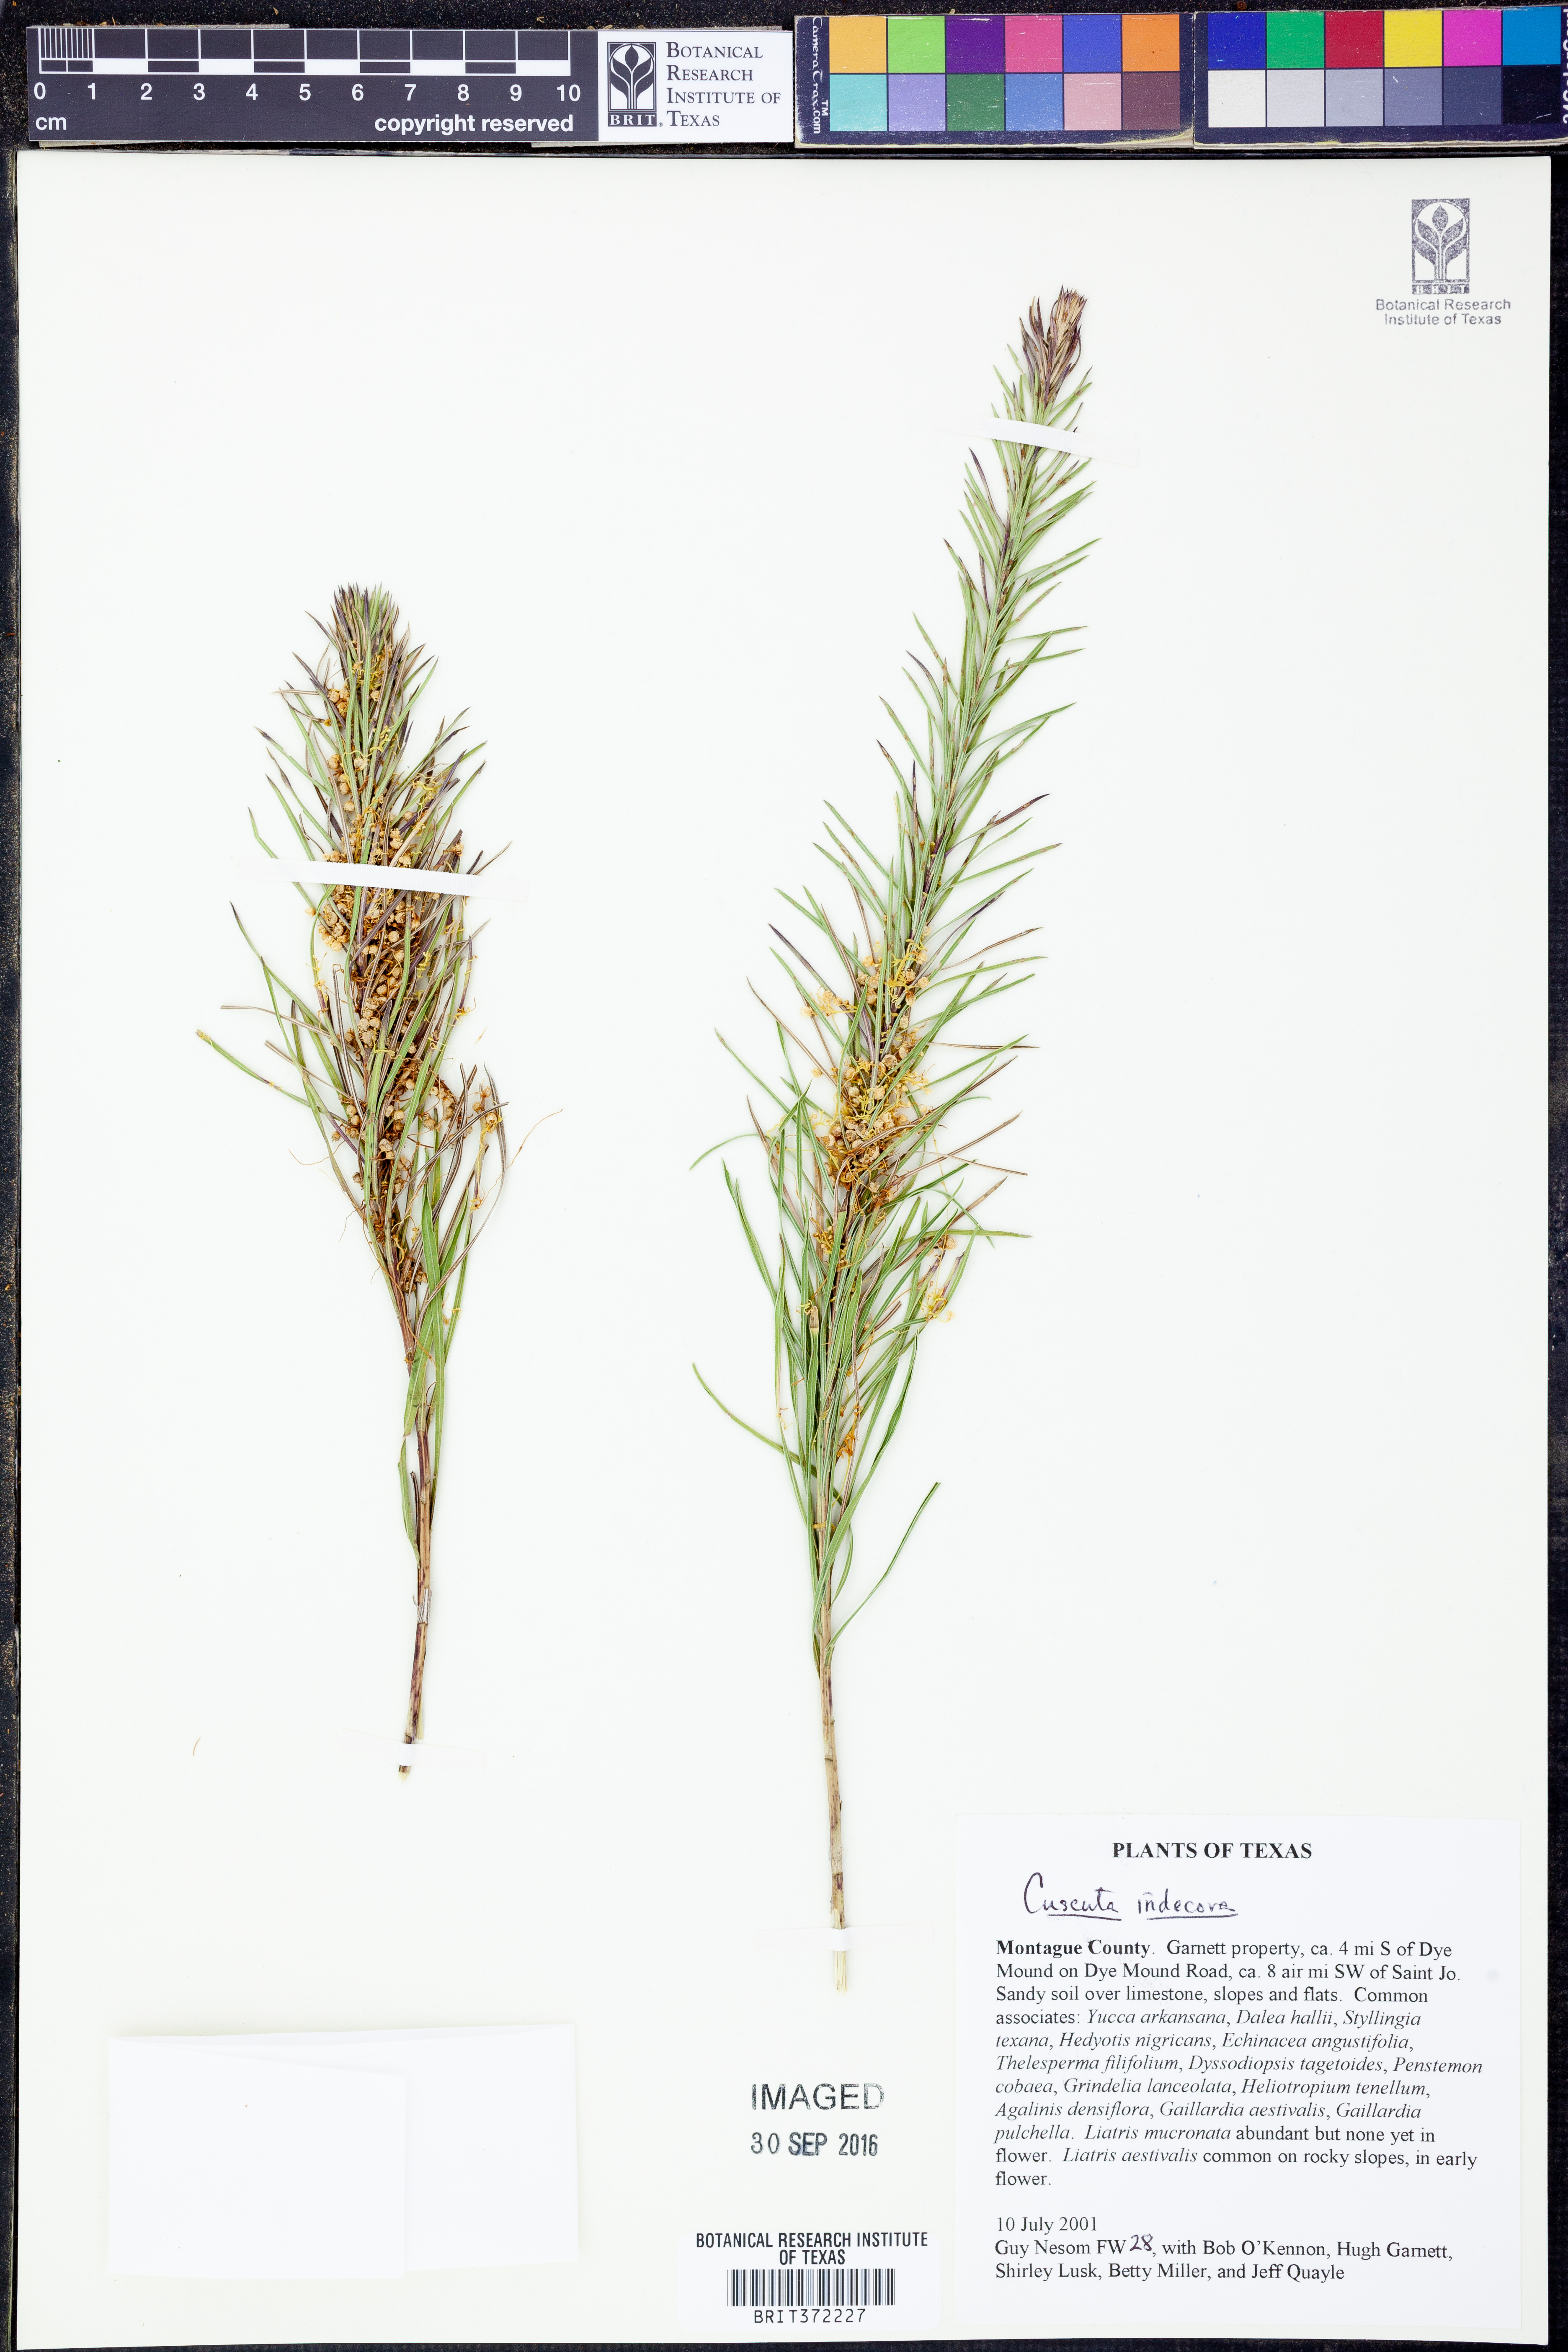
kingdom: Plantae
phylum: Tracheophyta
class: Magnoliopsida
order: Solanales
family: Convolvulaceae
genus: Cuscuta
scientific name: Cuscuta indecora
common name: Large-seed dodder
